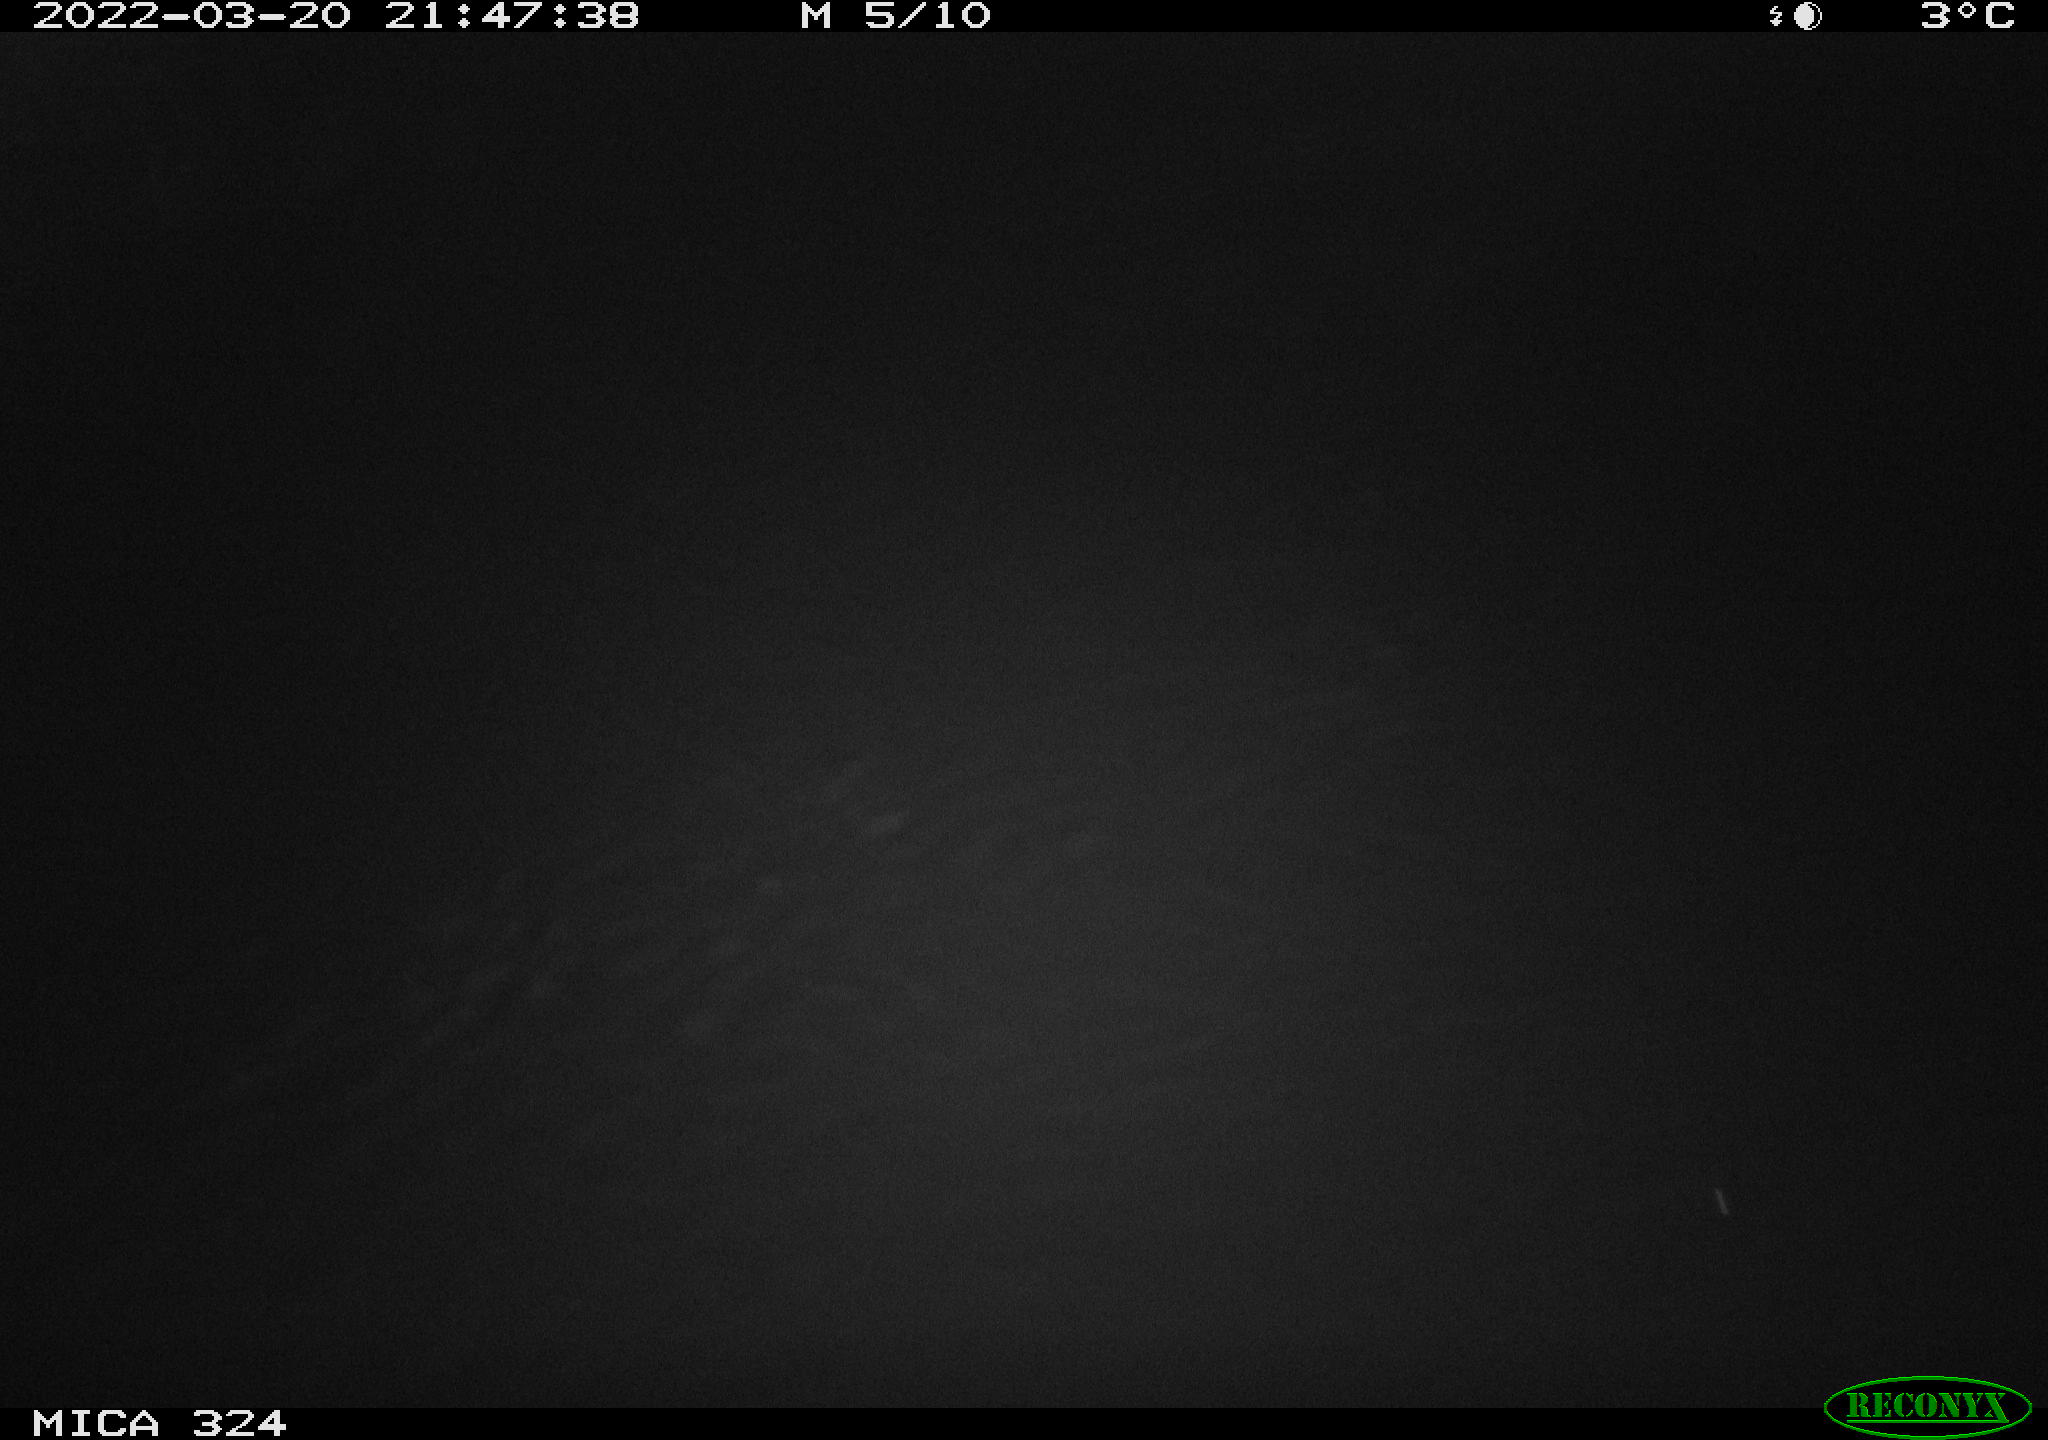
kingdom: Animalia
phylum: Chordata
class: Aves
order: Gruiformes
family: Rallidae
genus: Fulica
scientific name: Fulica atra
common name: Eurasian coot
